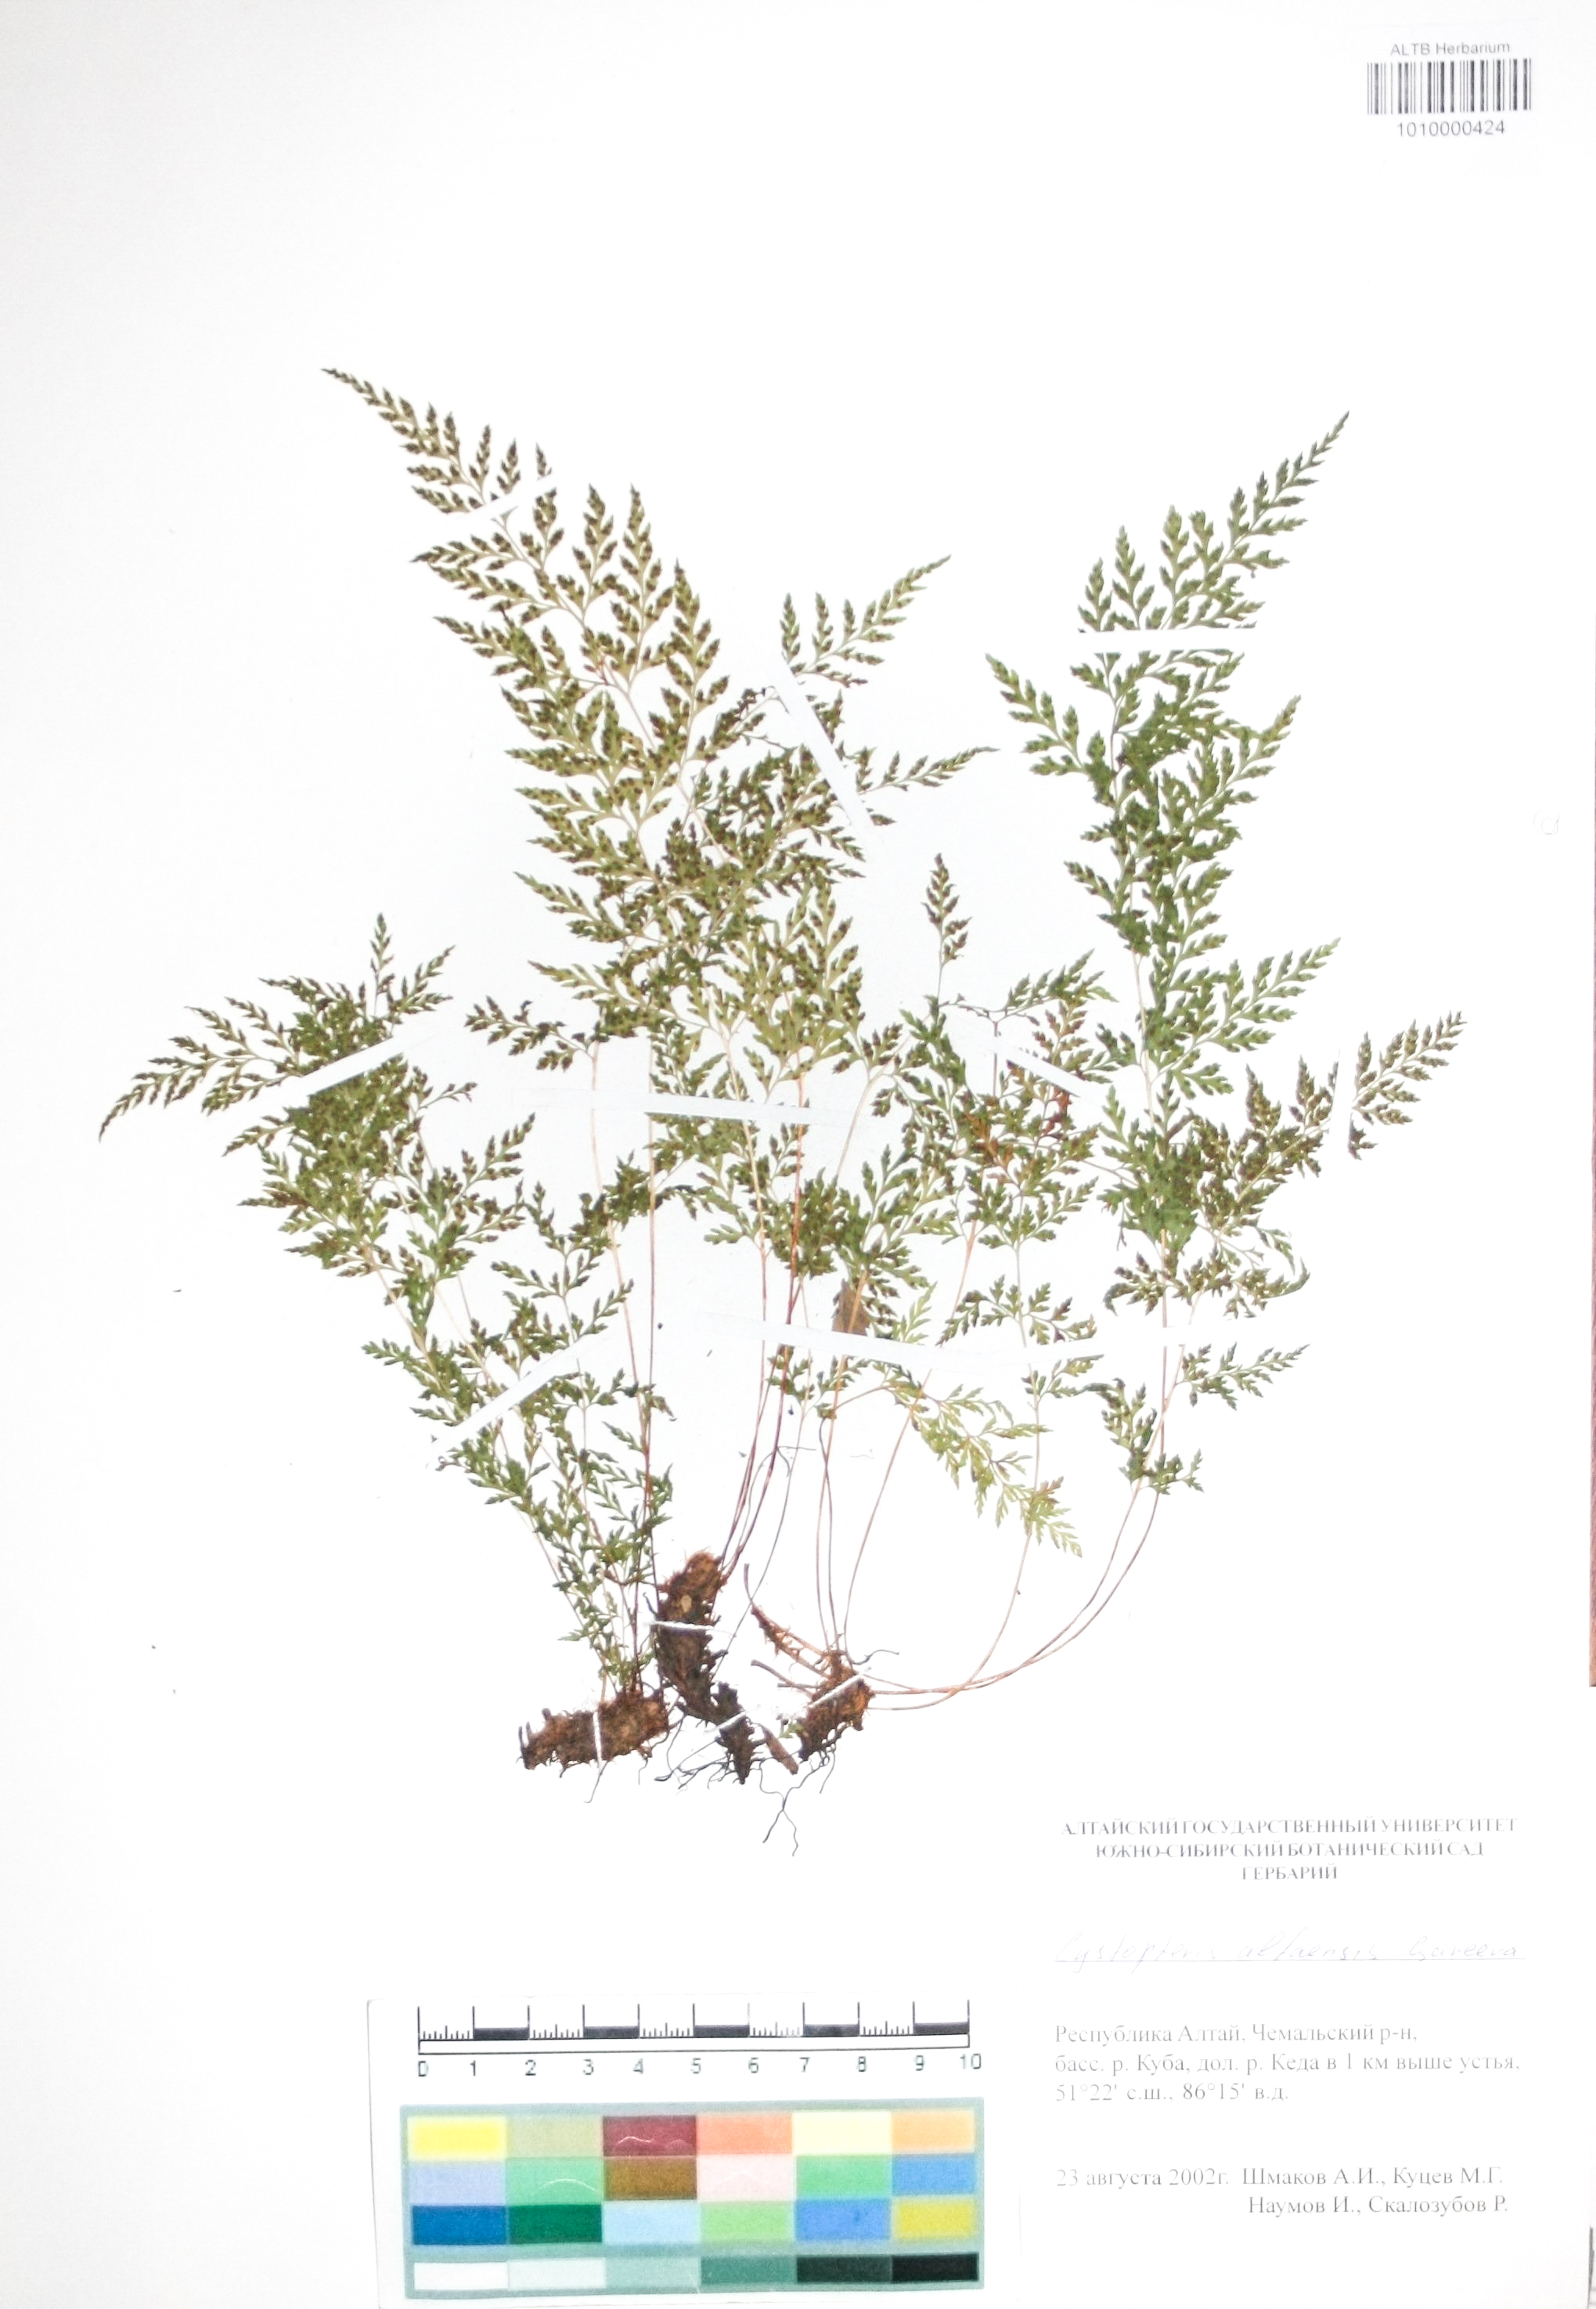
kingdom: Plantae
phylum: Tracheophyta
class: Polypodiopsida
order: Polypodiales
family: Cystopteridaceae
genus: Cystopteris
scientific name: Cystopteris diaphana
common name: Greenish bladder-fern
